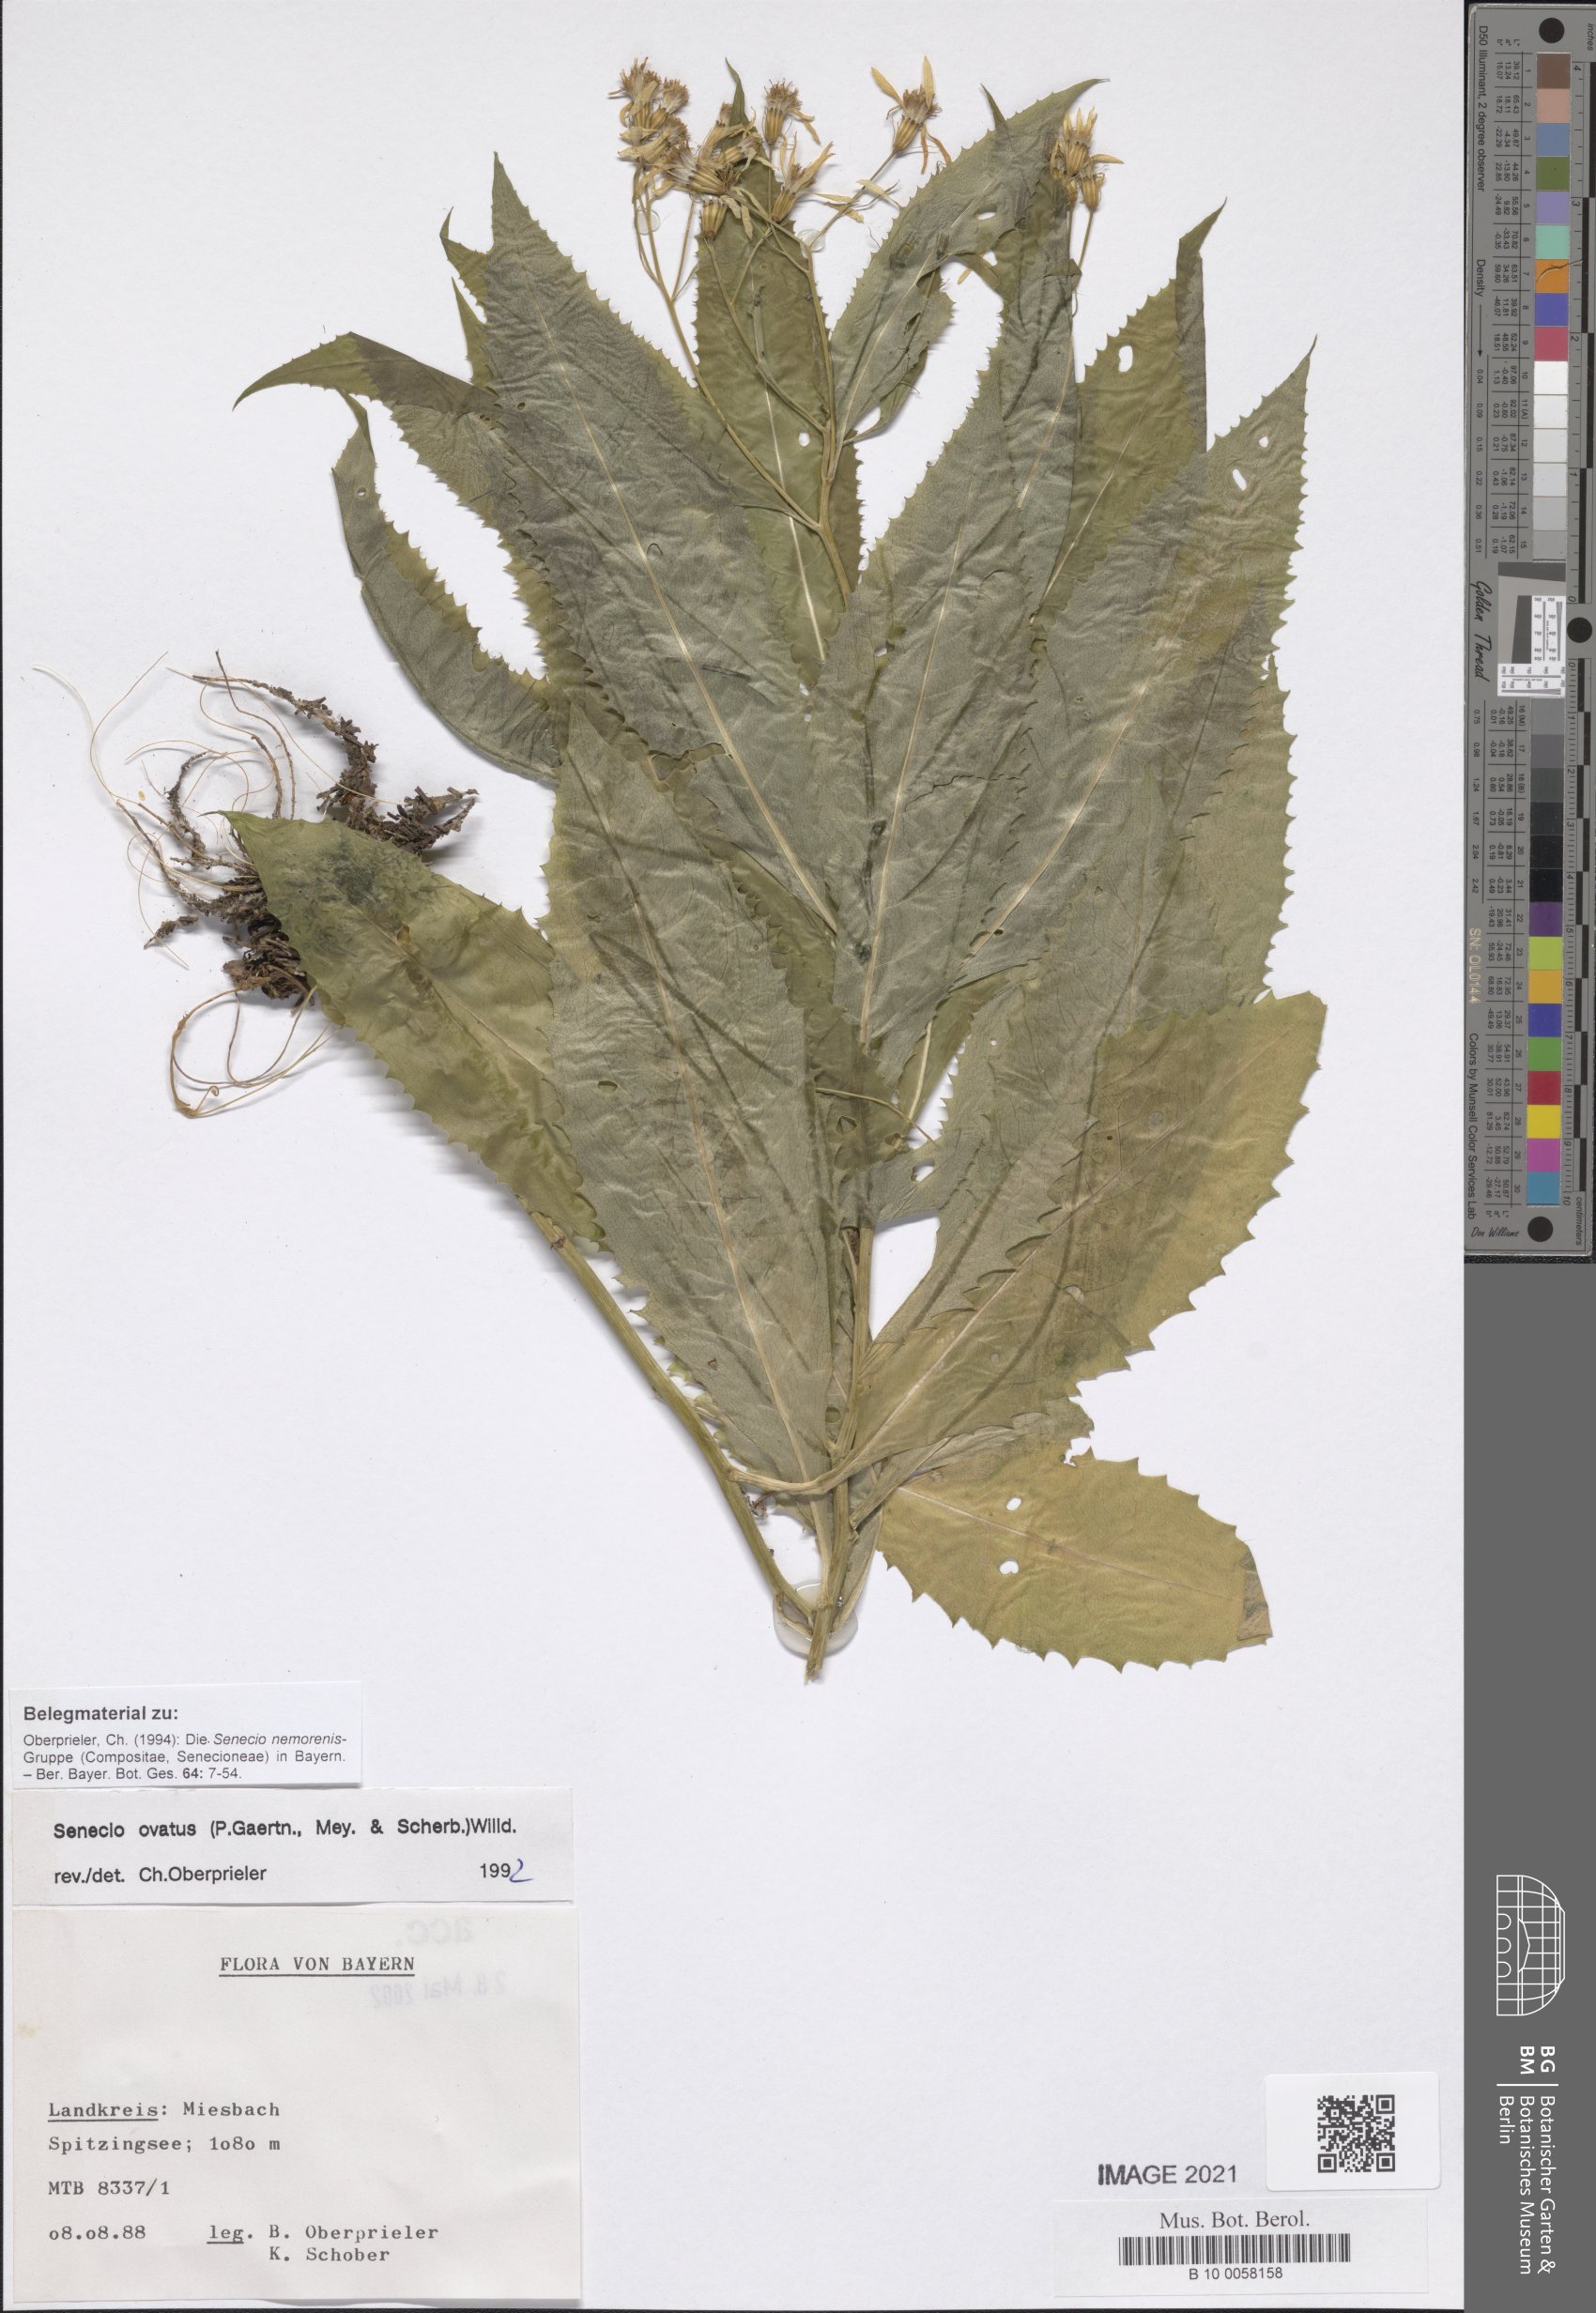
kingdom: Plantae
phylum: Tracheophyta
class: Magnoliopsida
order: Asterales
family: Asteraceae
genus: Senecio
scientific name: Senecio ovatus
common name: Wood ragwort
